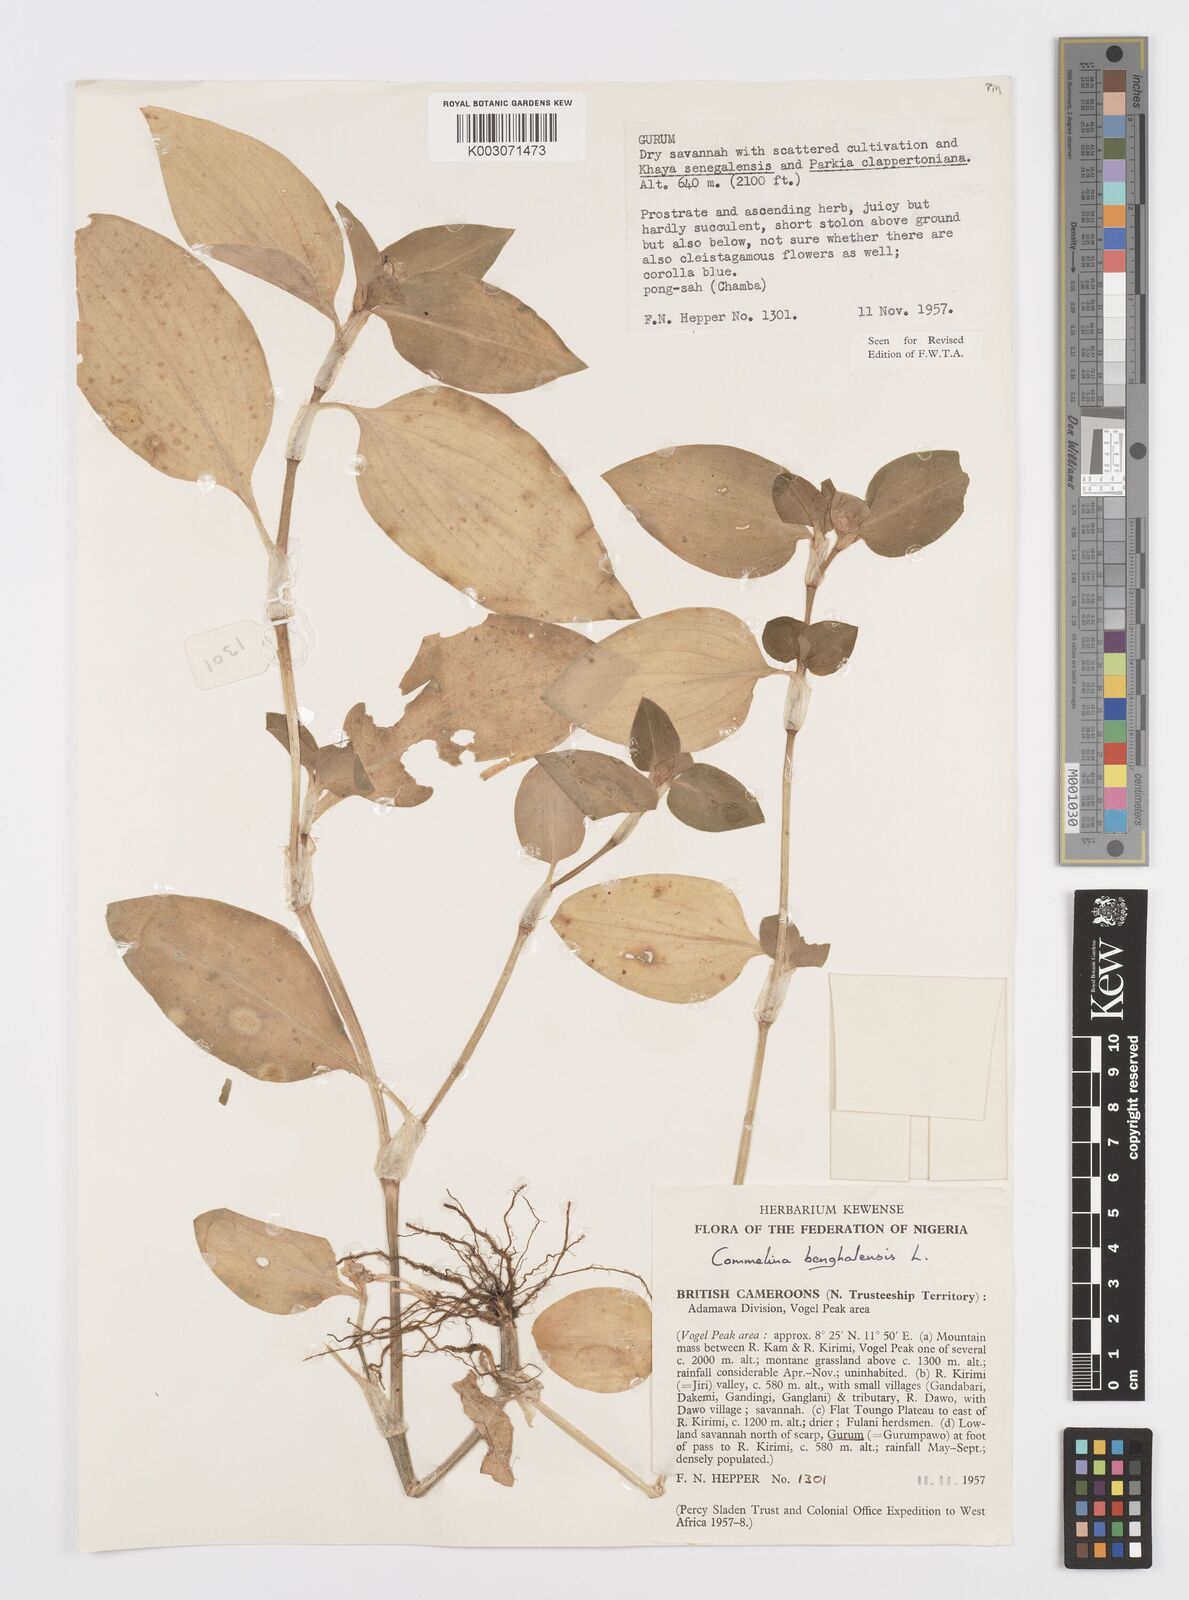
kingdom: Plantae
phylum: Tracheophyta
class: Liliopsida
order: Commelinales
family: Commelinaceae
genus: Commelina
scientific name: Commelina benghalensis
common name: Jio
